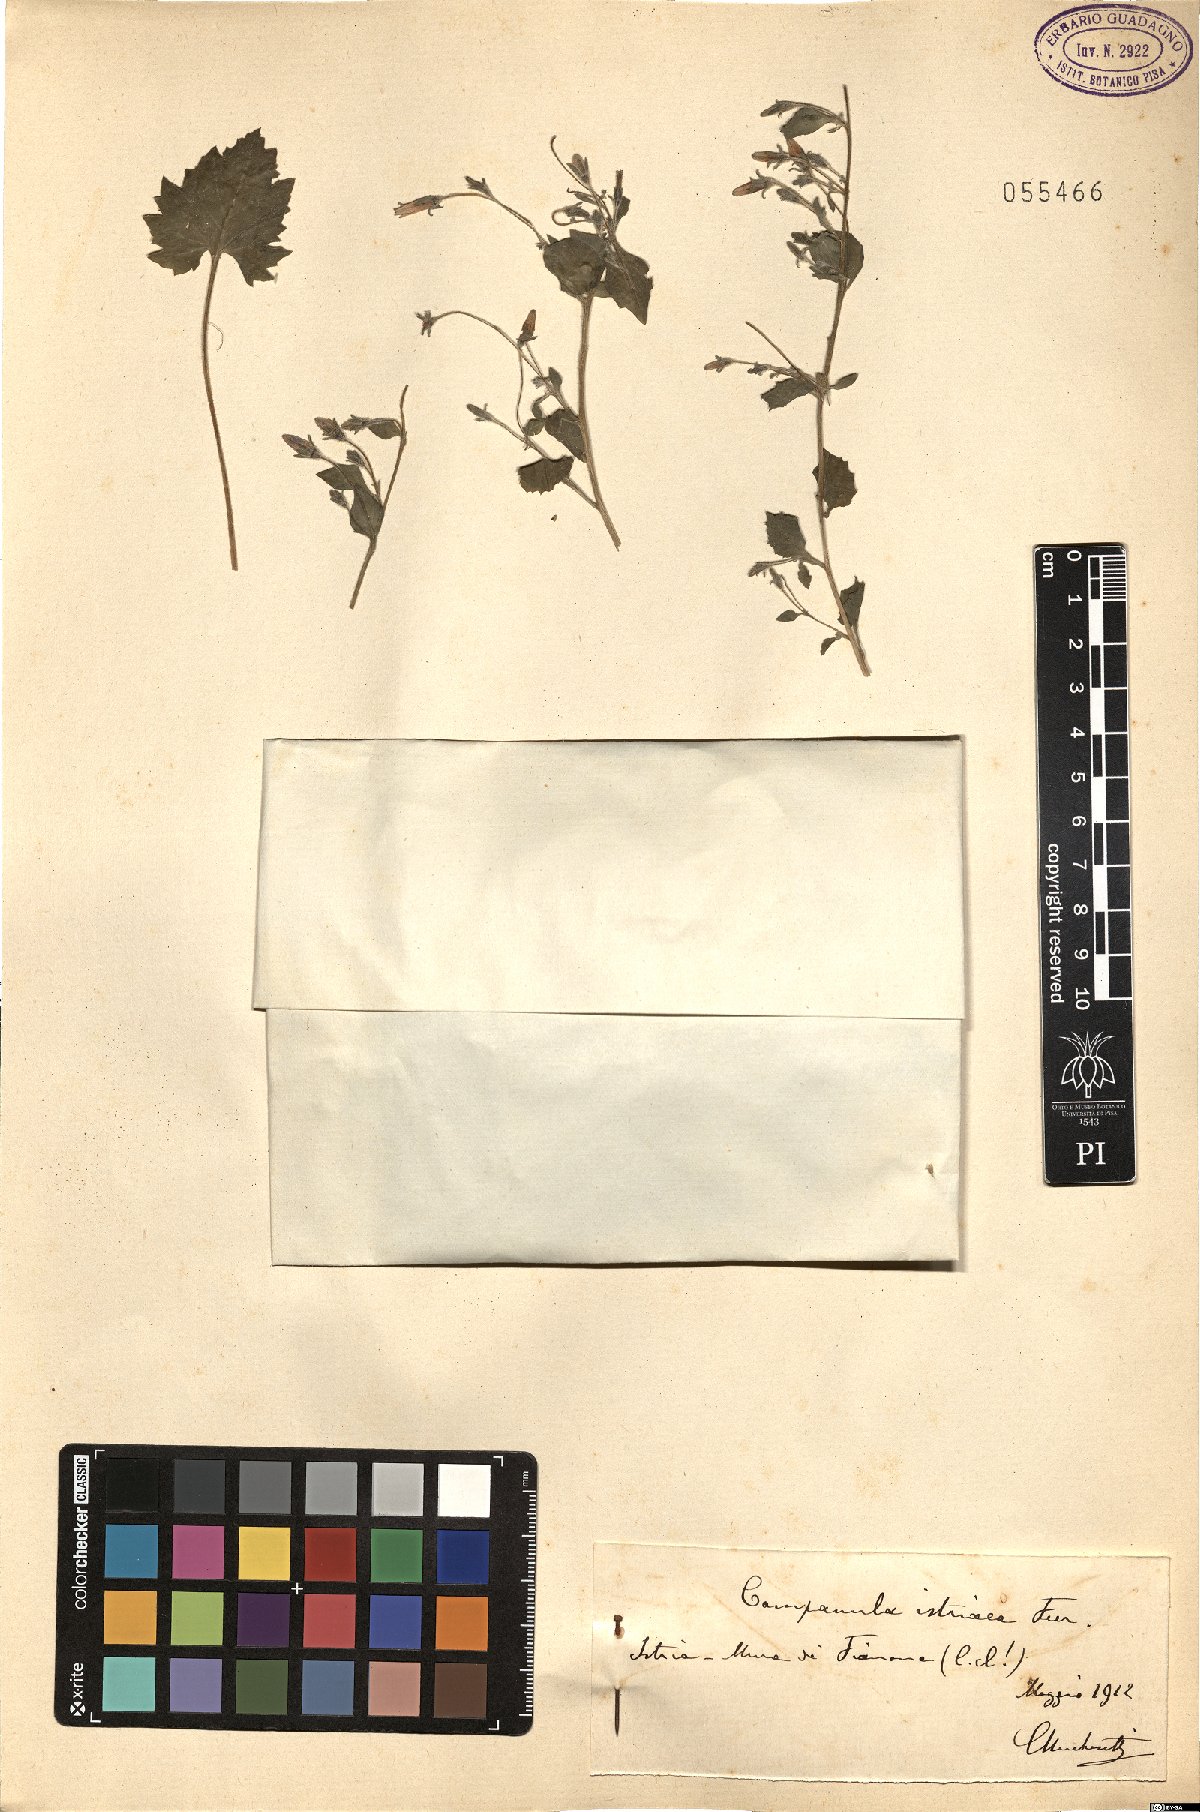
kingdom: Plantae
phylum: Tracheophyta
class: Magnoliopsida
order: Asterales
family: Campanulaceae
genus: Campanula
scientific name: Campanula fenestrellata
